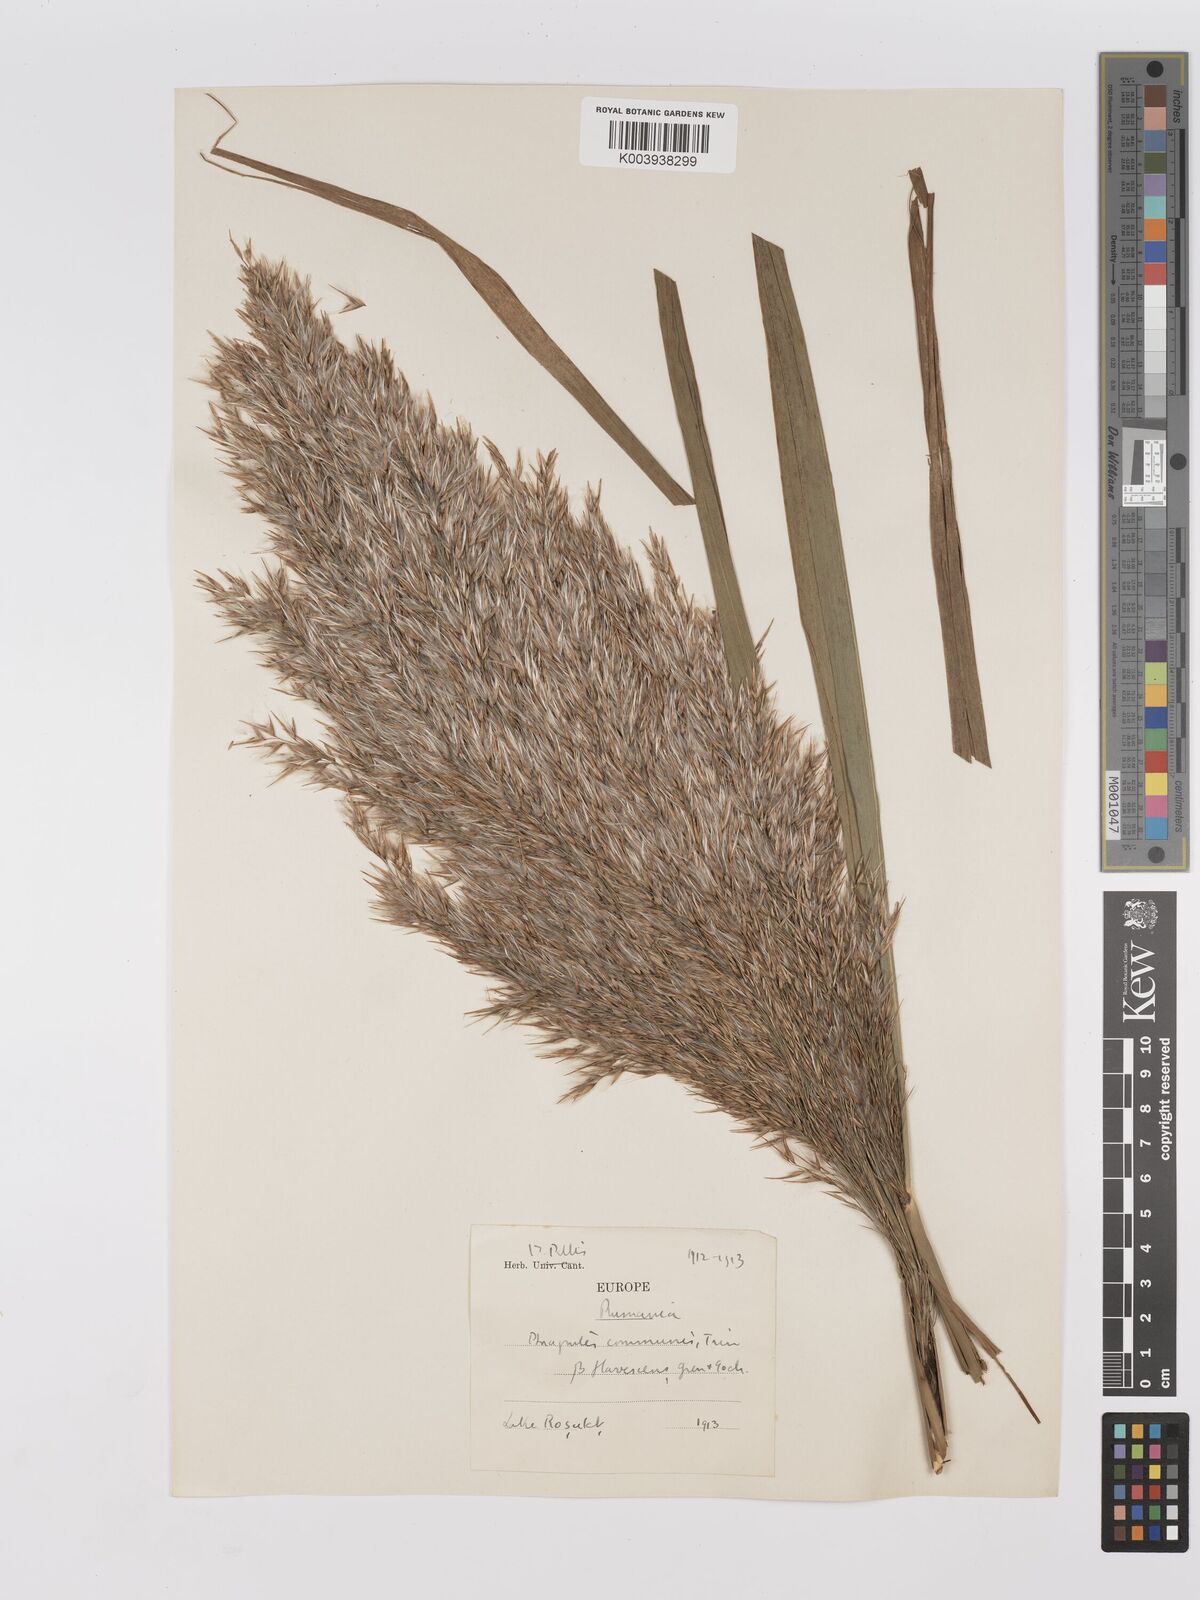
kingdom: Plantae
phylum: Tracheophyta
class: Liliopsida
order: Poales
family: Poaceae
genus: Phragmites
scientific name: Phragmites australis
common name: Common reed
